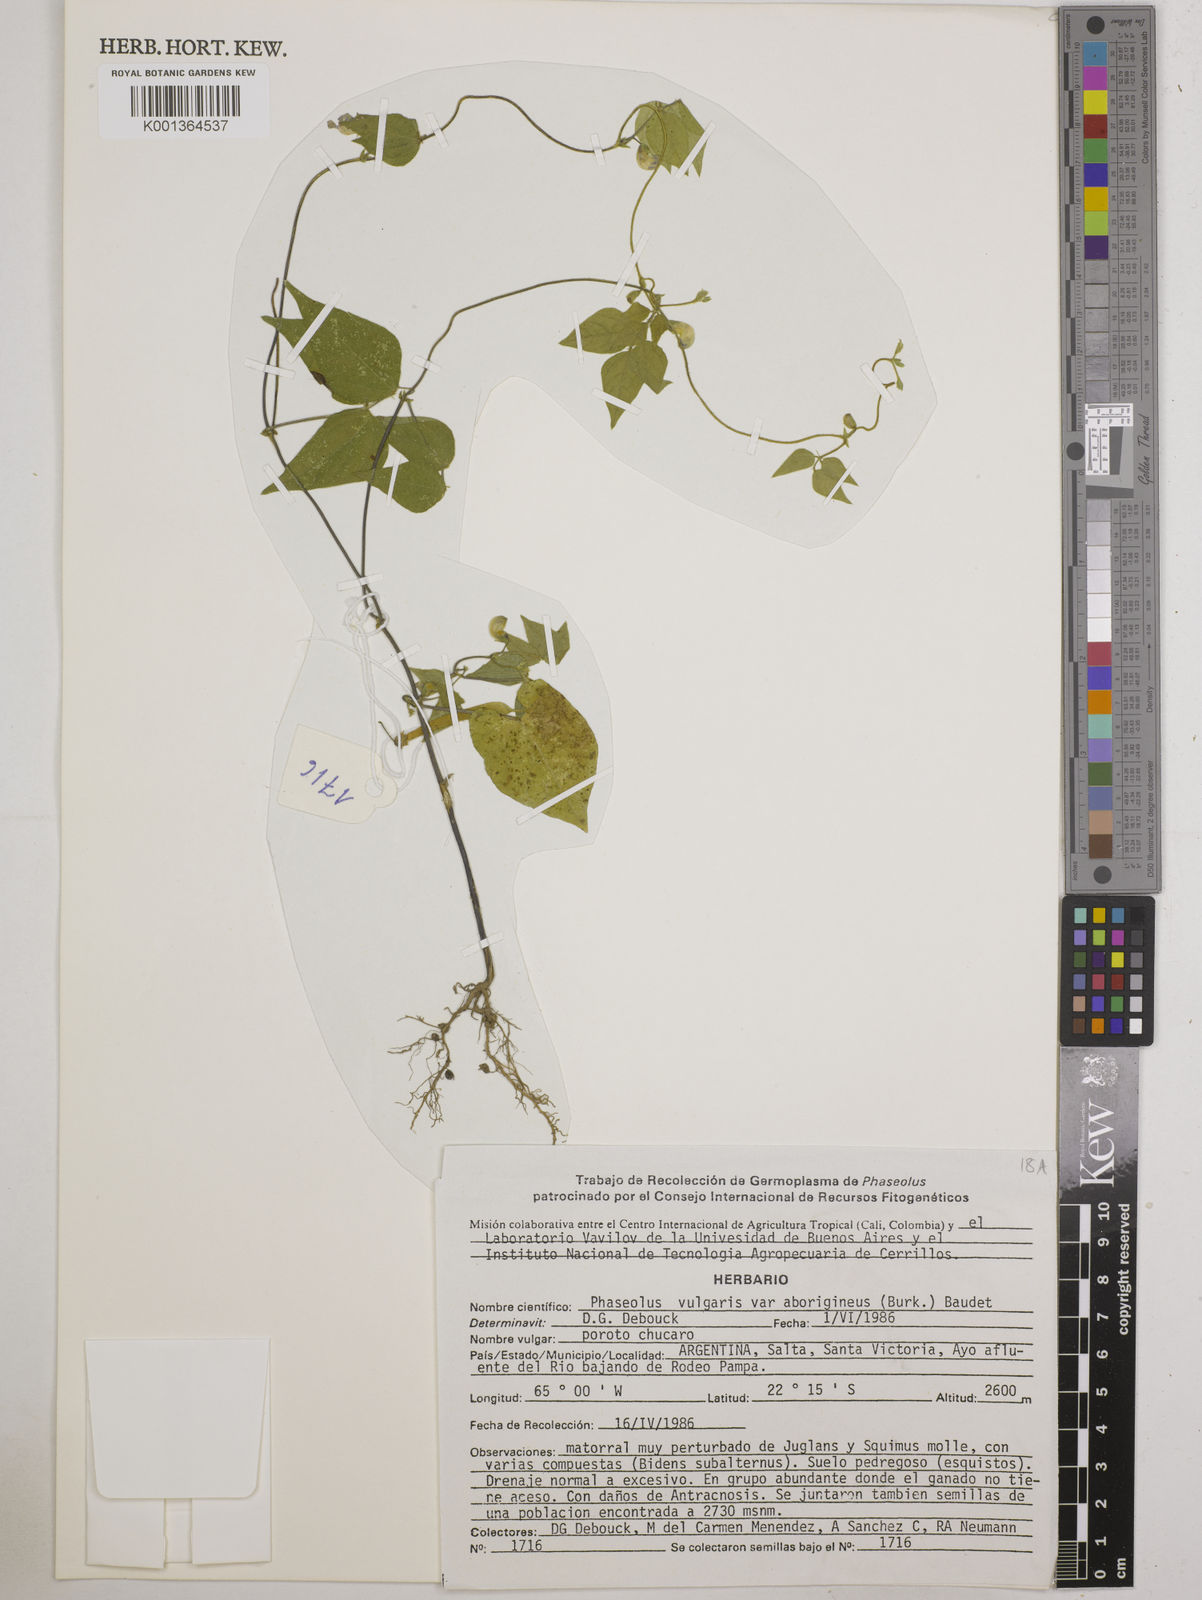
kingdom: Plantae
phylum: Tracheophyta
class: Magnoliopsida
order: Fabales
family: Fabaceae
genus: Phaseolus
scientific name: Phaseolus vulgaris
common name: Bean
